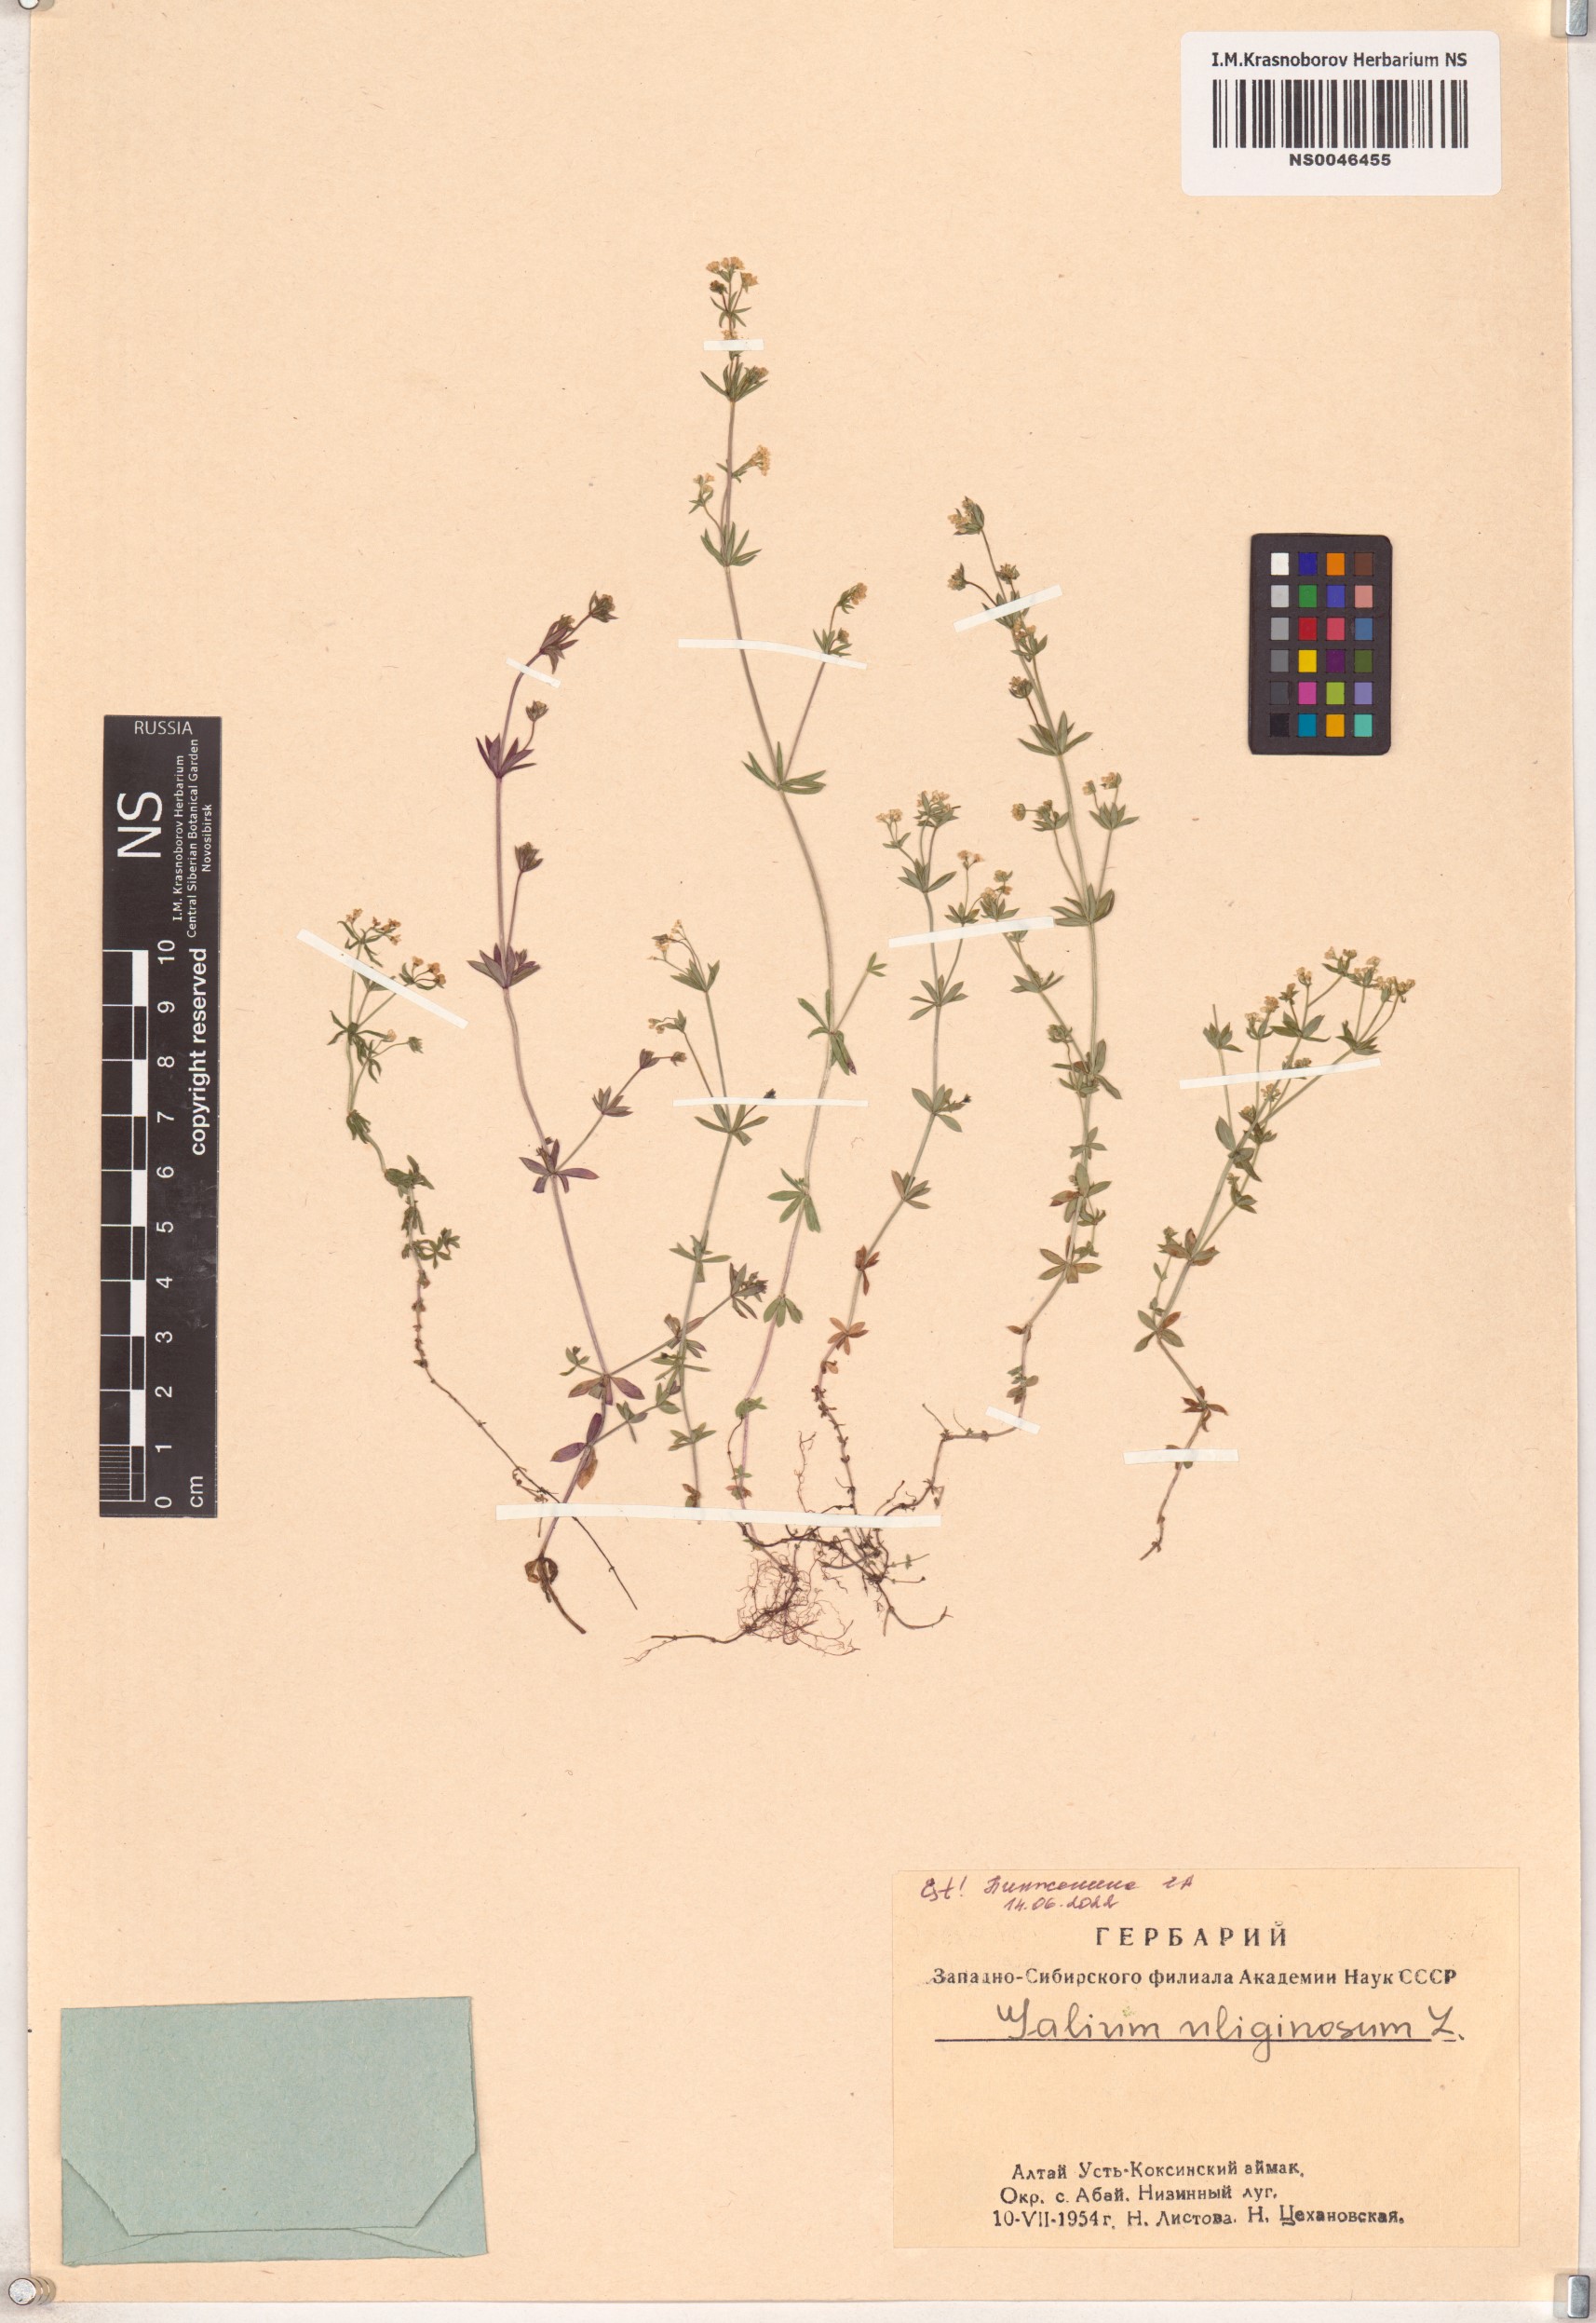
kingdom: Plantae
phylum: Tracheophyta
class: Magnoliopsida
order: Gentianales
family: Rubiaceae
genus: Galium
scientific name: Galium uliginosum
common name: Fen bedstraw
